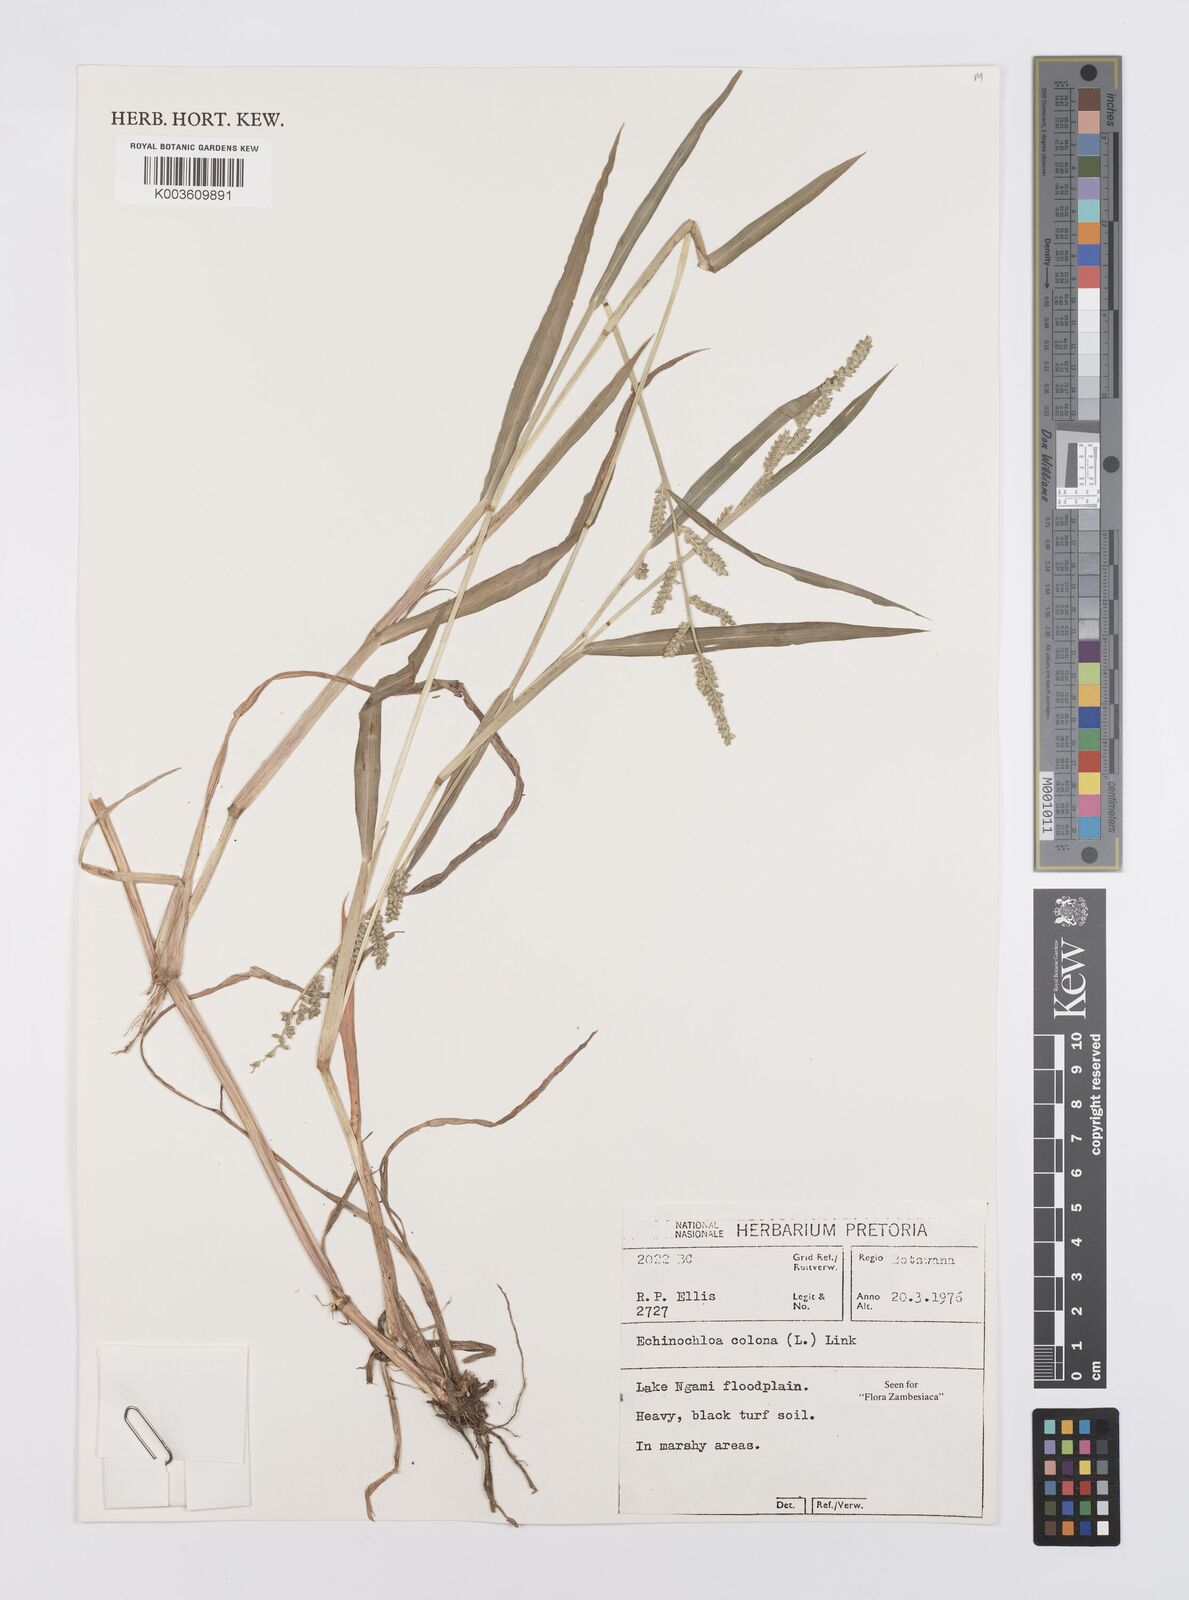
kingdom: Plantae
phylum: Tracheophyta
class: Liliopsida
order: Poales
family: Poaceae
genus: Echinochloa
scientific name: Echinochloa colonum
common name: Jungle rice
